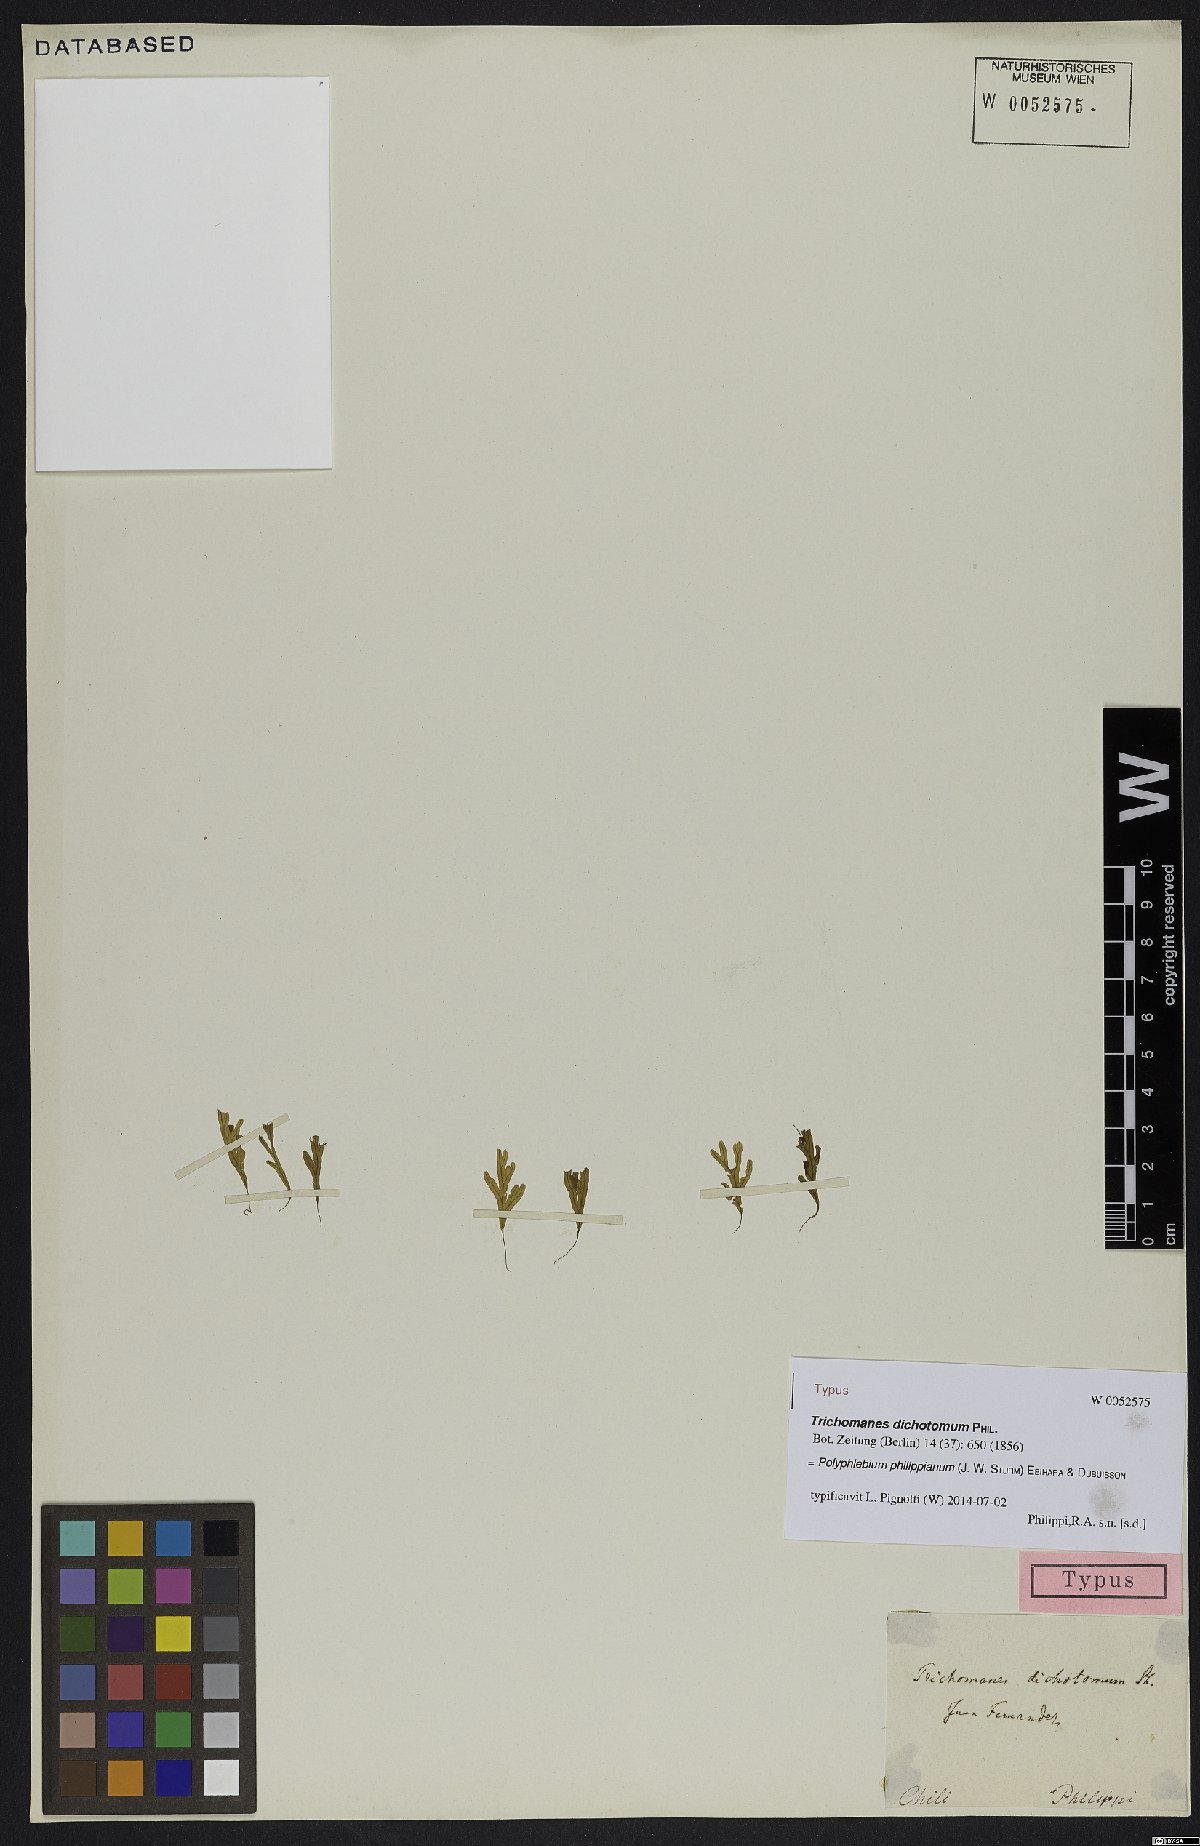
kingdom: Plantae
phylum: Tracheophyta
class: Polypodiopsida
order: Hymenophyllales
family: Hymenophyllaceae
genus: Polyphlebium
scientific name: Polyphlebium philippianum
